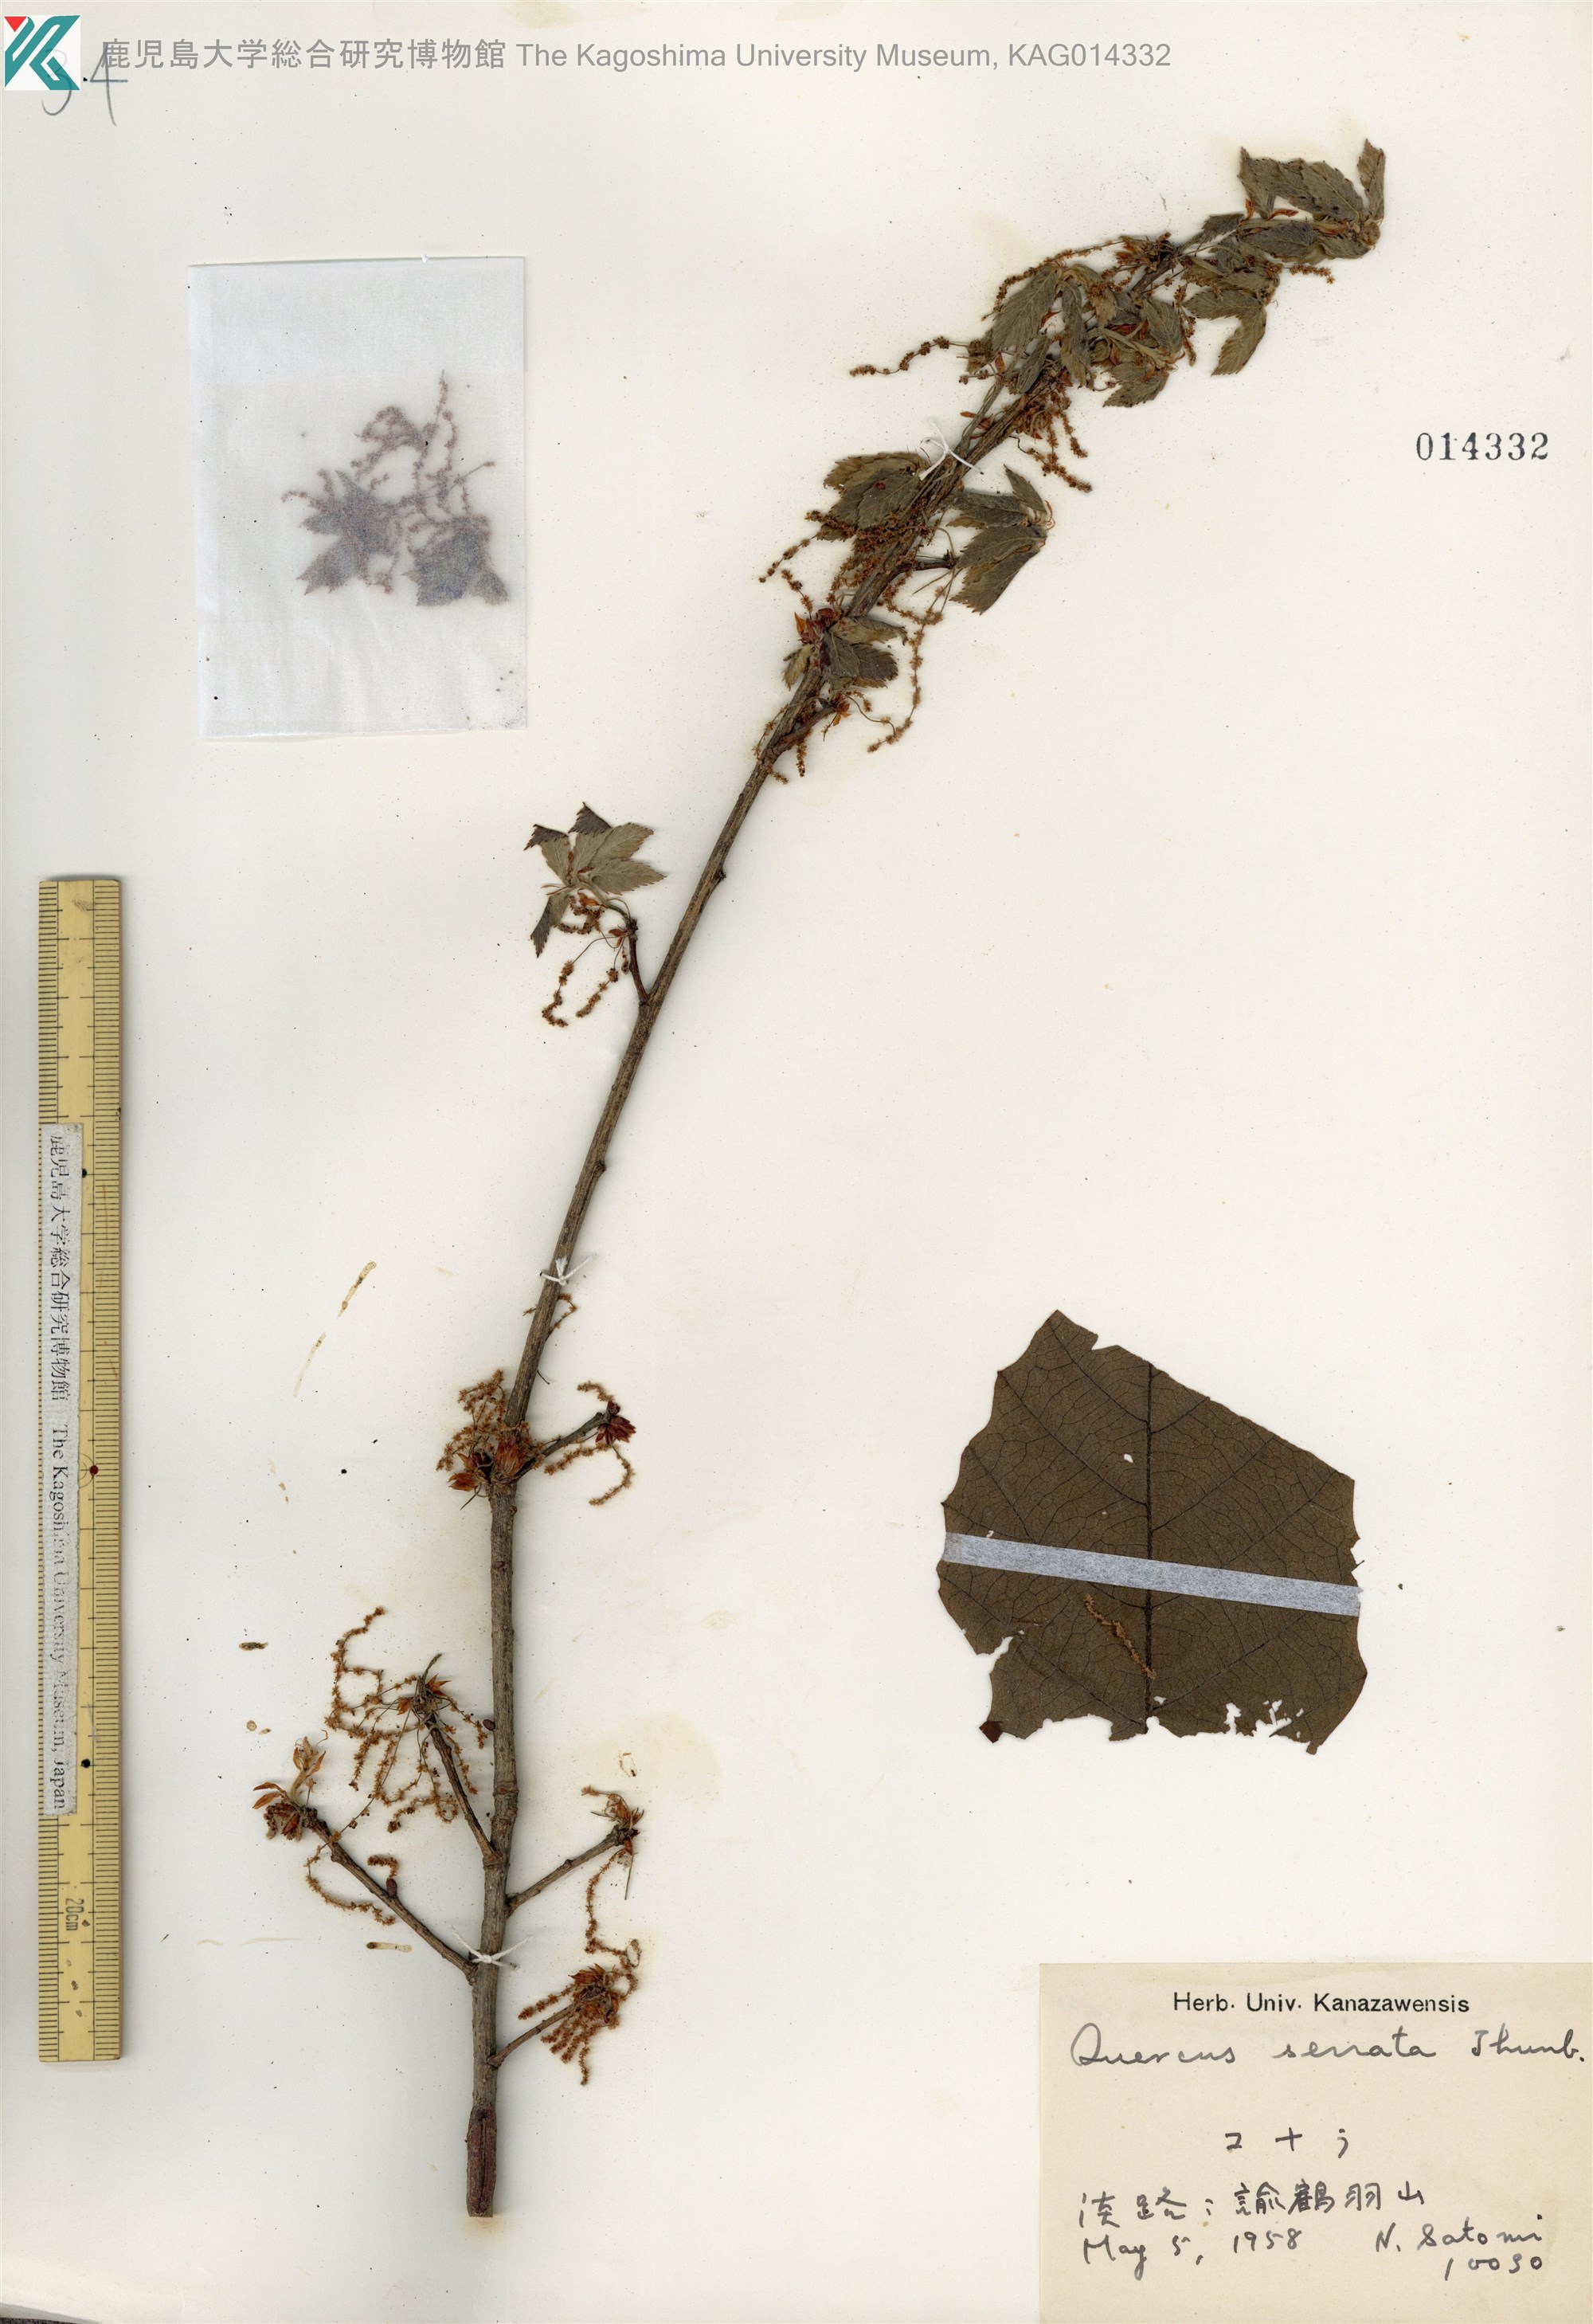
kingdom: Plantae
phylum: Tracheophyta
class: Magnoliopsida
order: Fagales
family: Fagaceae
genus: Quercus
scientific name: Quercus serrata
